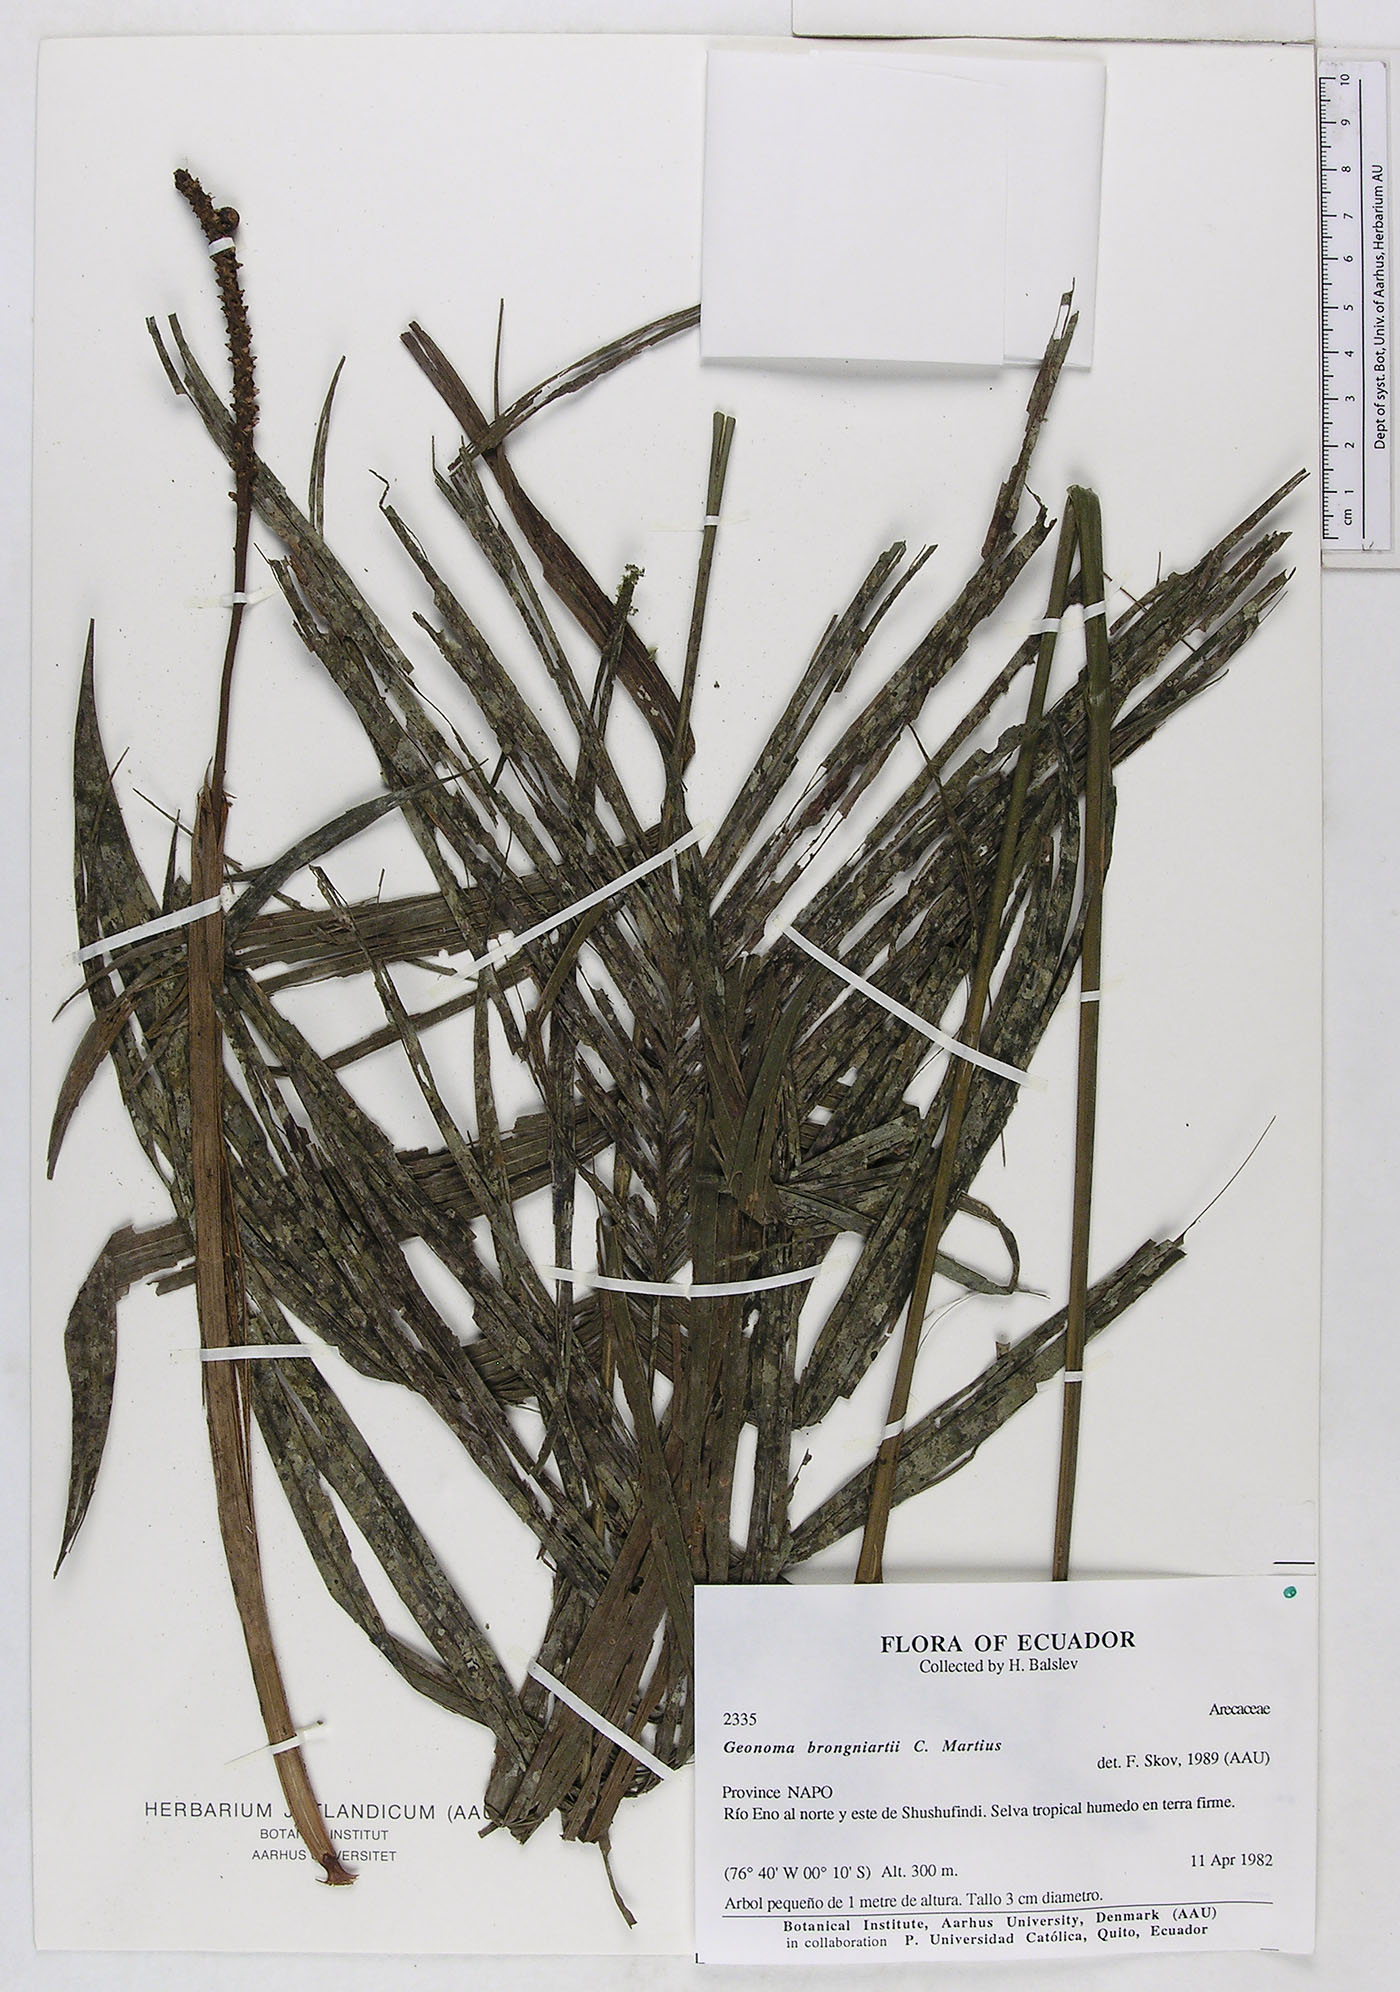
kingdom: Plantae
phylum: Tracheophyta
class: Liliopsida
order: Arecales
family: Arecaceae
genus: Geonoma
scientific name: Geonoma brongniartii
